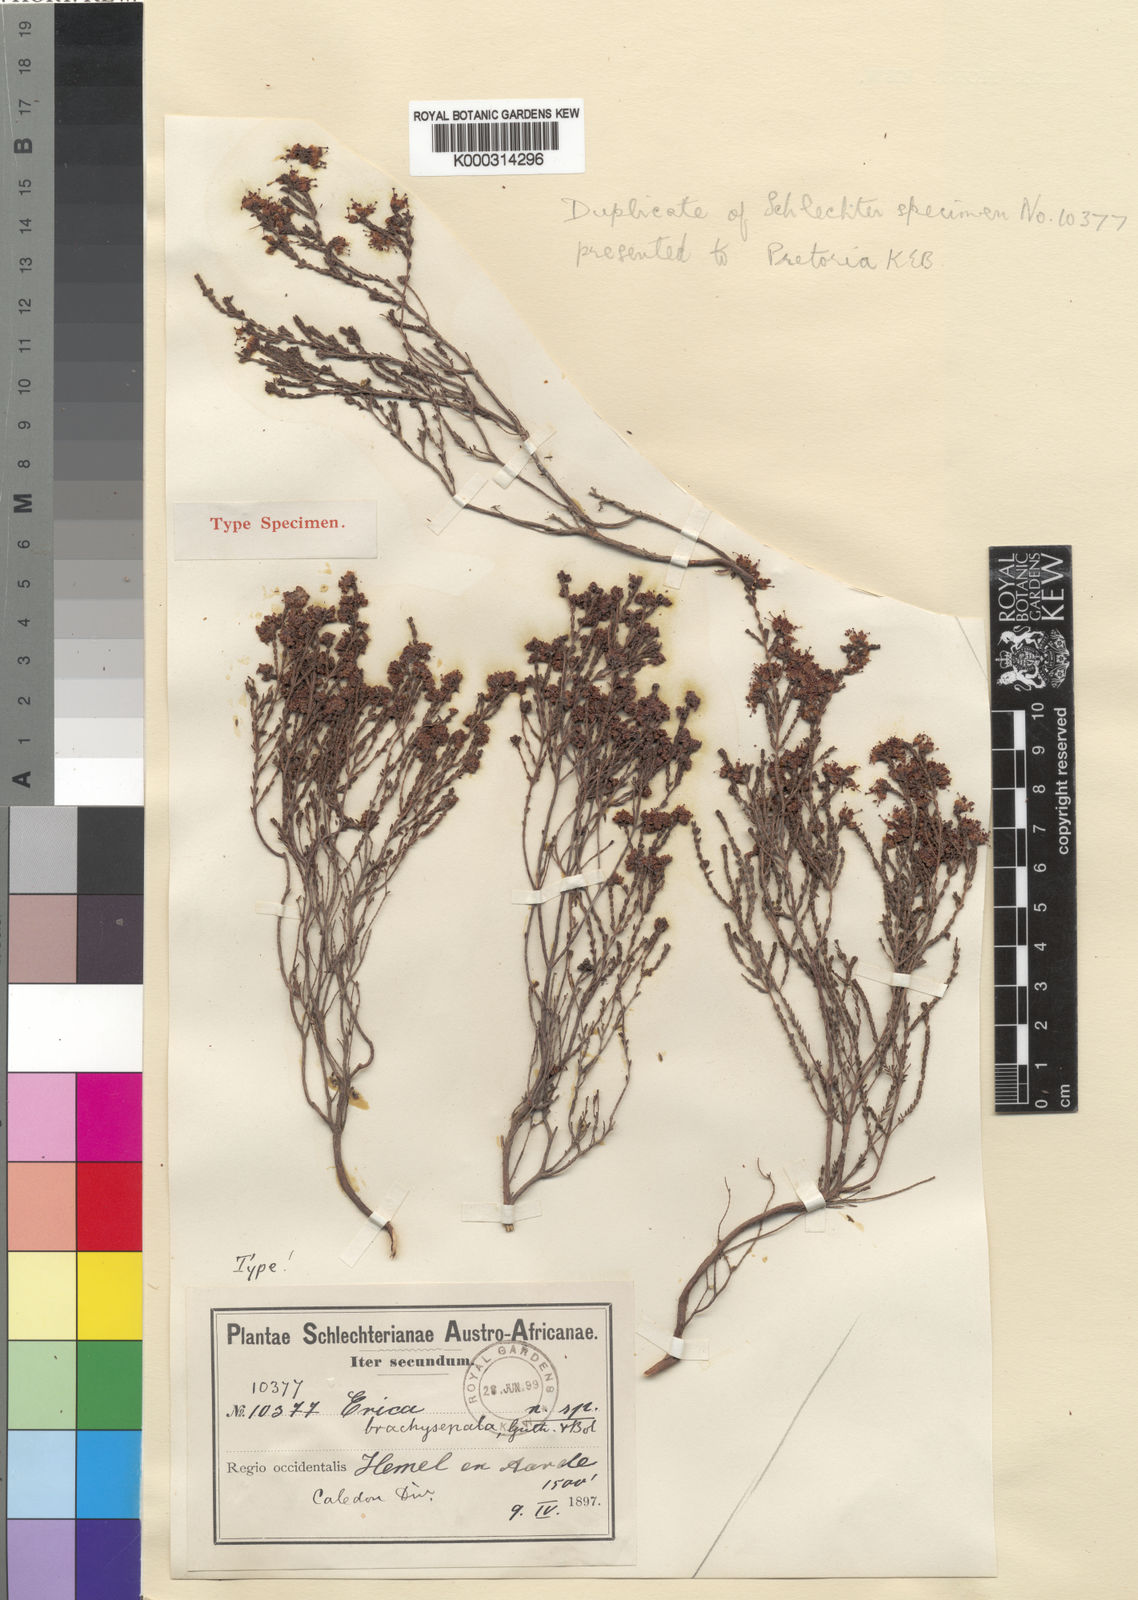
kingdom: Plantae
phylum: Tracheophyta
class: Magnoliopsida
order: Ericales
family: Ericaceae
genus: Erica
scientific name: Erica brachysepala
